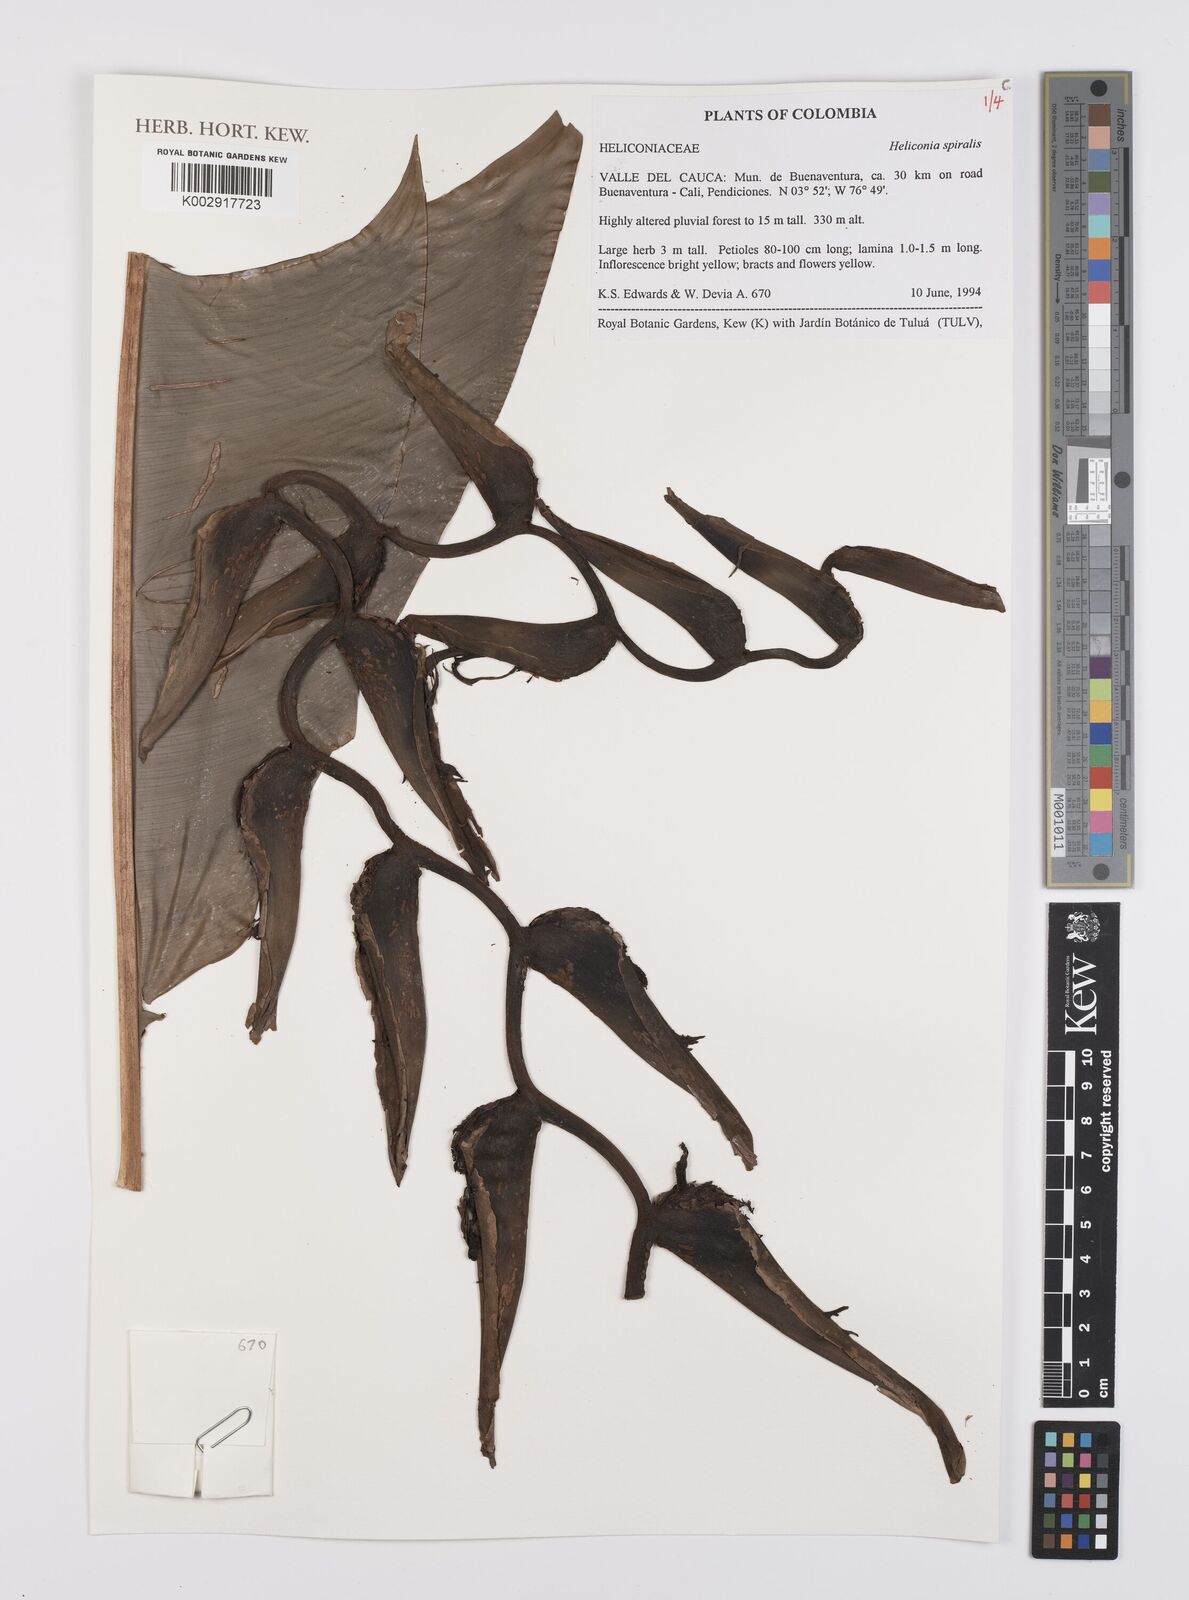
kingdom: Plantae
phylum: Tracheophyta
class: Liliopsida
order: Zingiberales
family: Heliconiaceae
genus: Heliconia
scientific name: Heliconia spiralis
